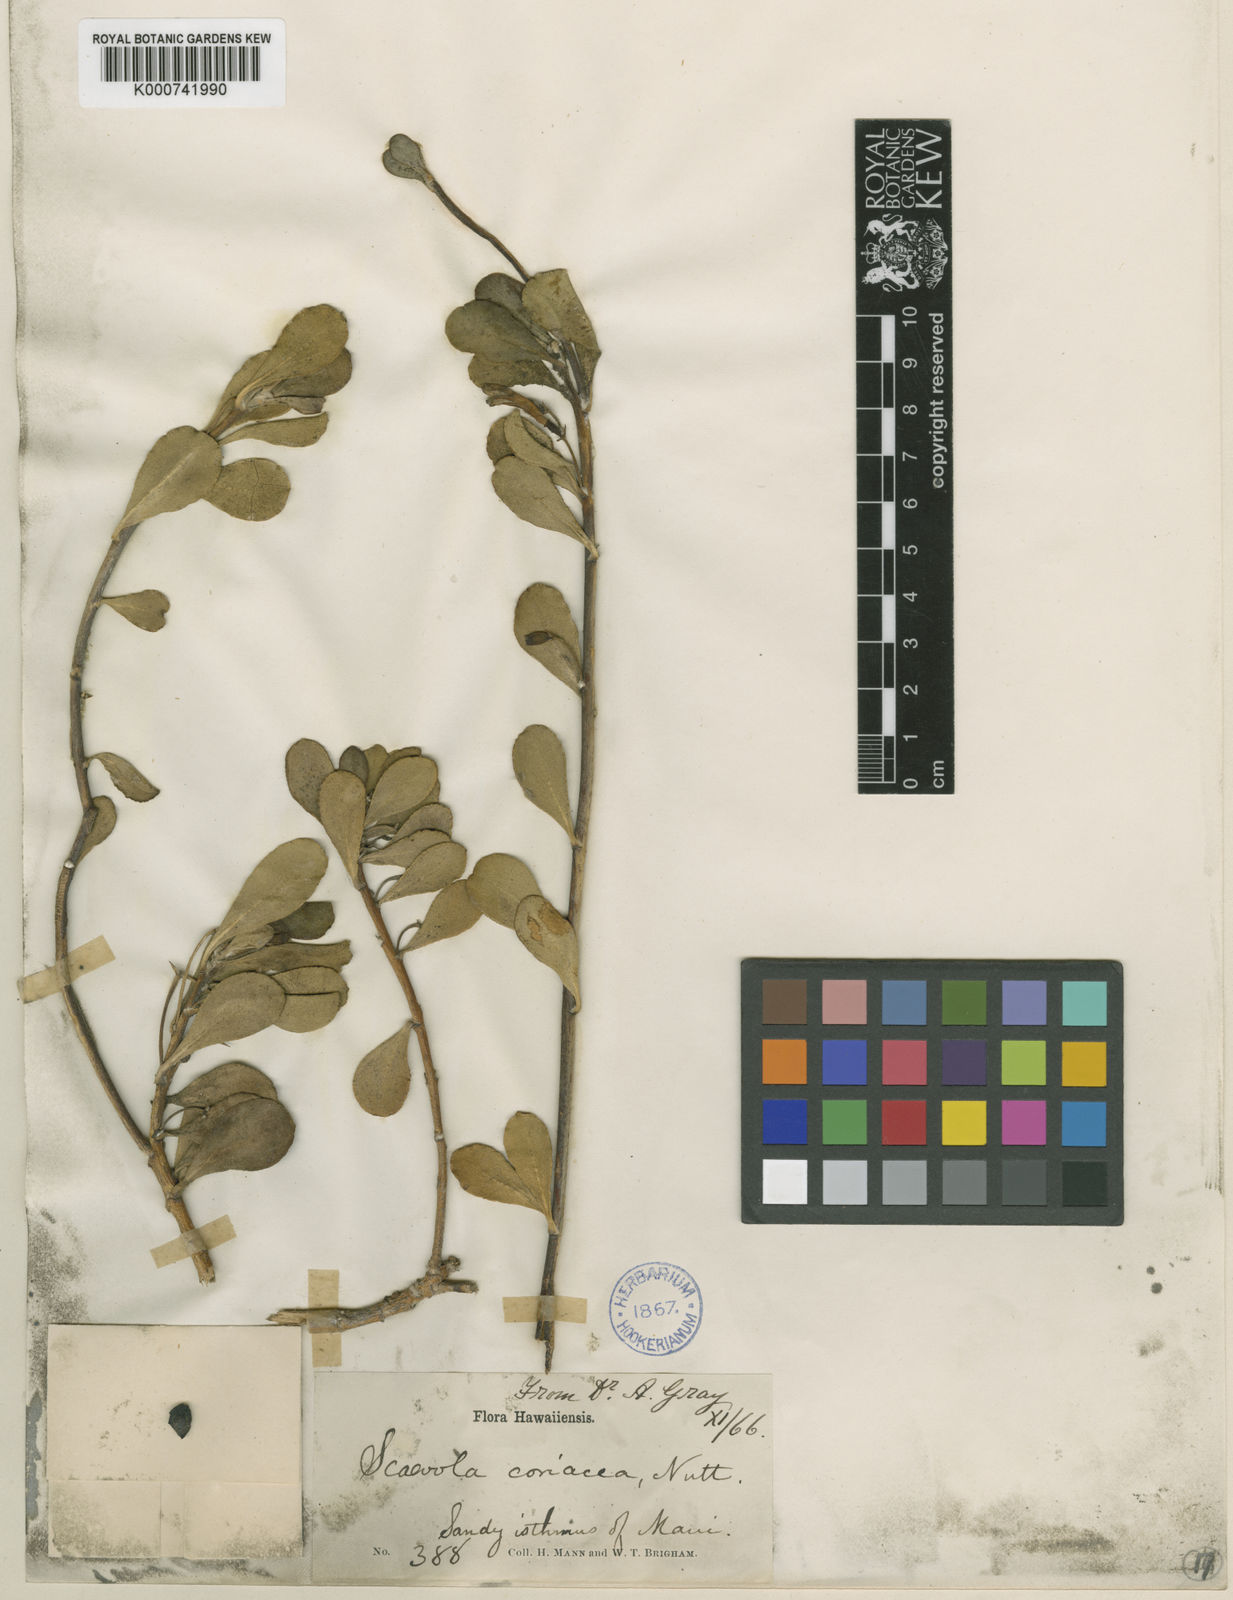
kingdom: Plantae
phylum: Tracheophyta
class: Magnoliopsida
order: Asterales
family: Goodeniaceae
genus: Scaevola
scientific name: Scaevola coriacea
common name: Dwarf naupaka
